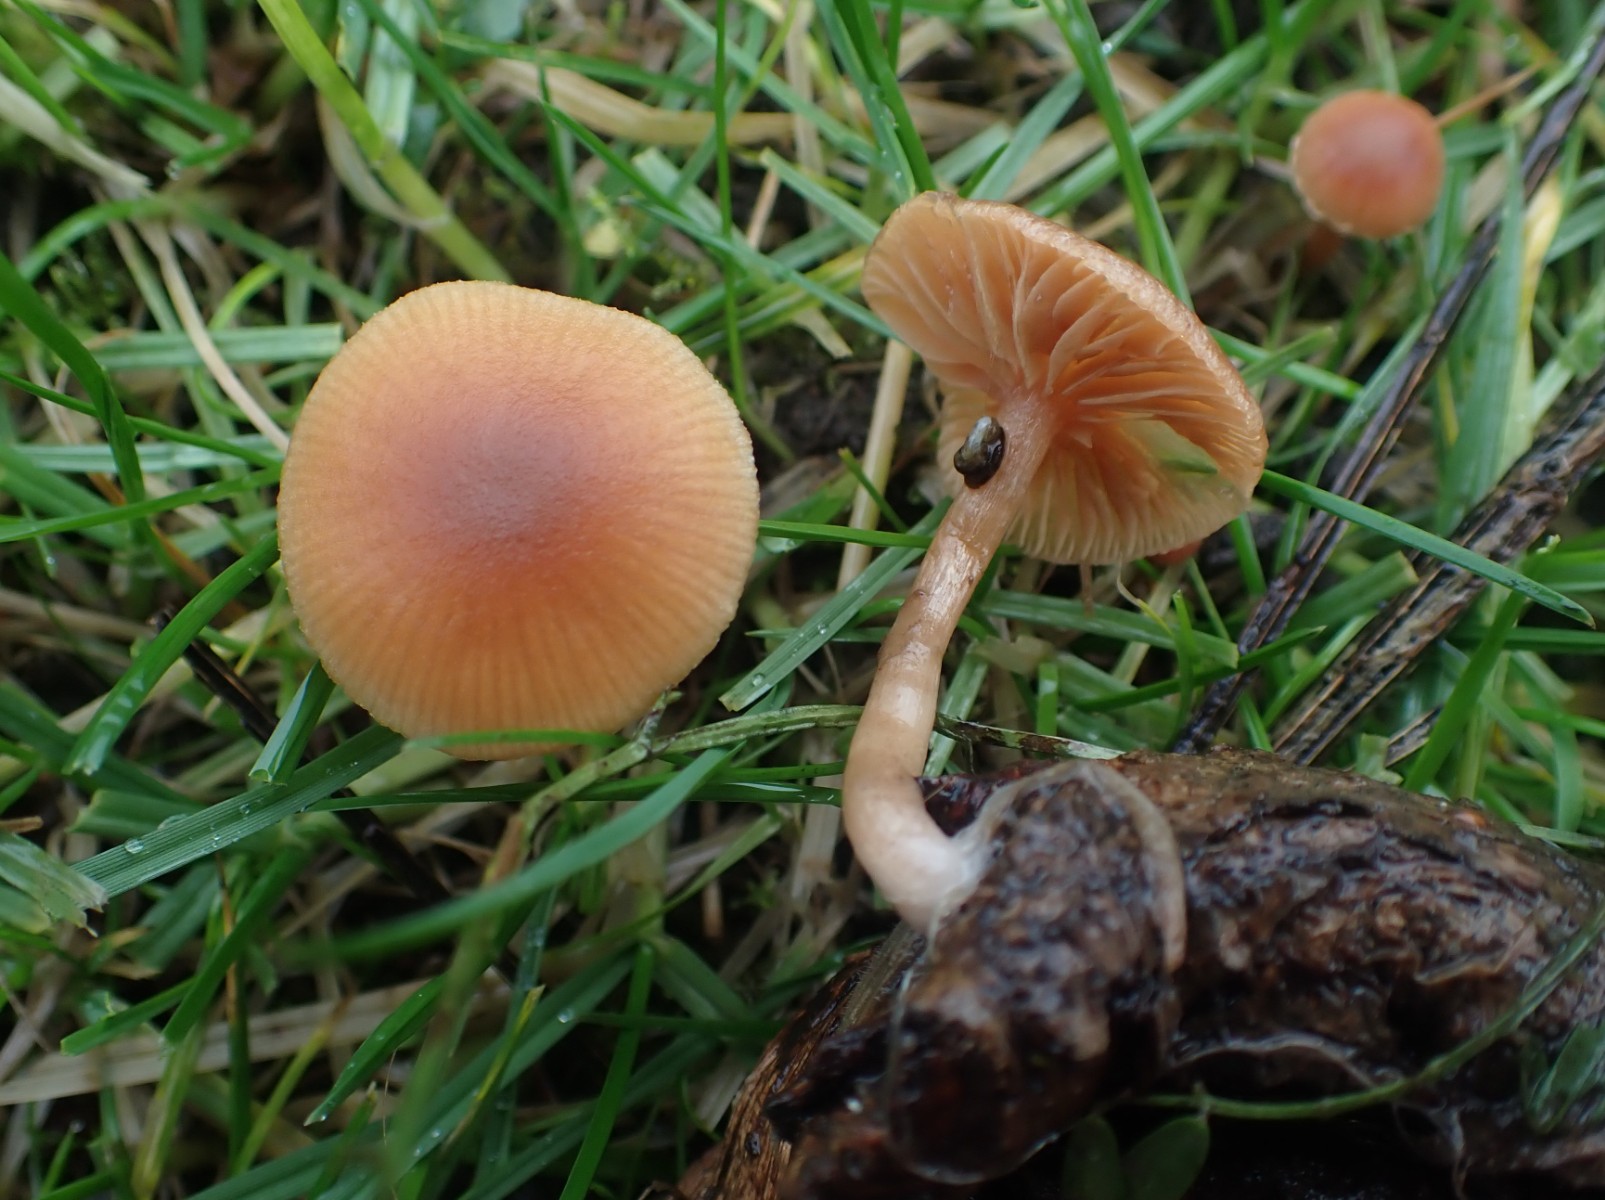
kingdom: Fungi
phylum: Basidiomycota
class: Agaricomycetes
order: Agaricales
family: Tubariaceae
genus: Tubaria
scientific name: Tubaria furfuracea
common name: kliddet fnughat
